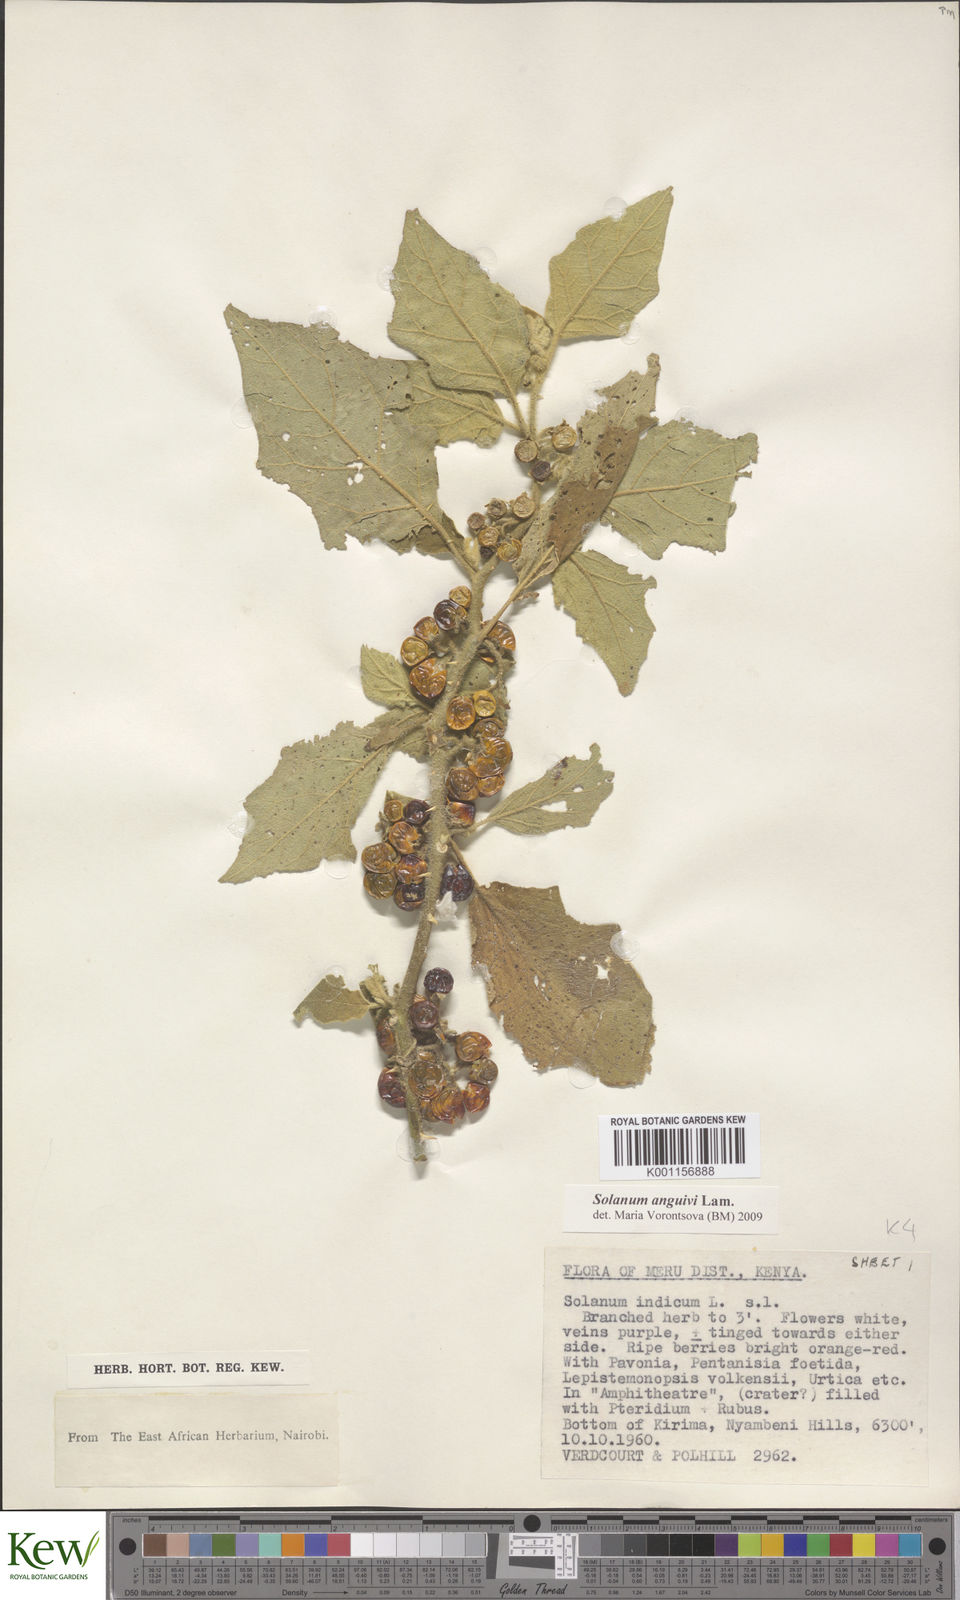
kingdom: Plantae
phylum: Tracheophyta
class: Magnoliopsida
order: Solanales
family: Solanaceae
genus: Solanum
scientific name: Solanum anguivi
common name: Forest bitterberry
